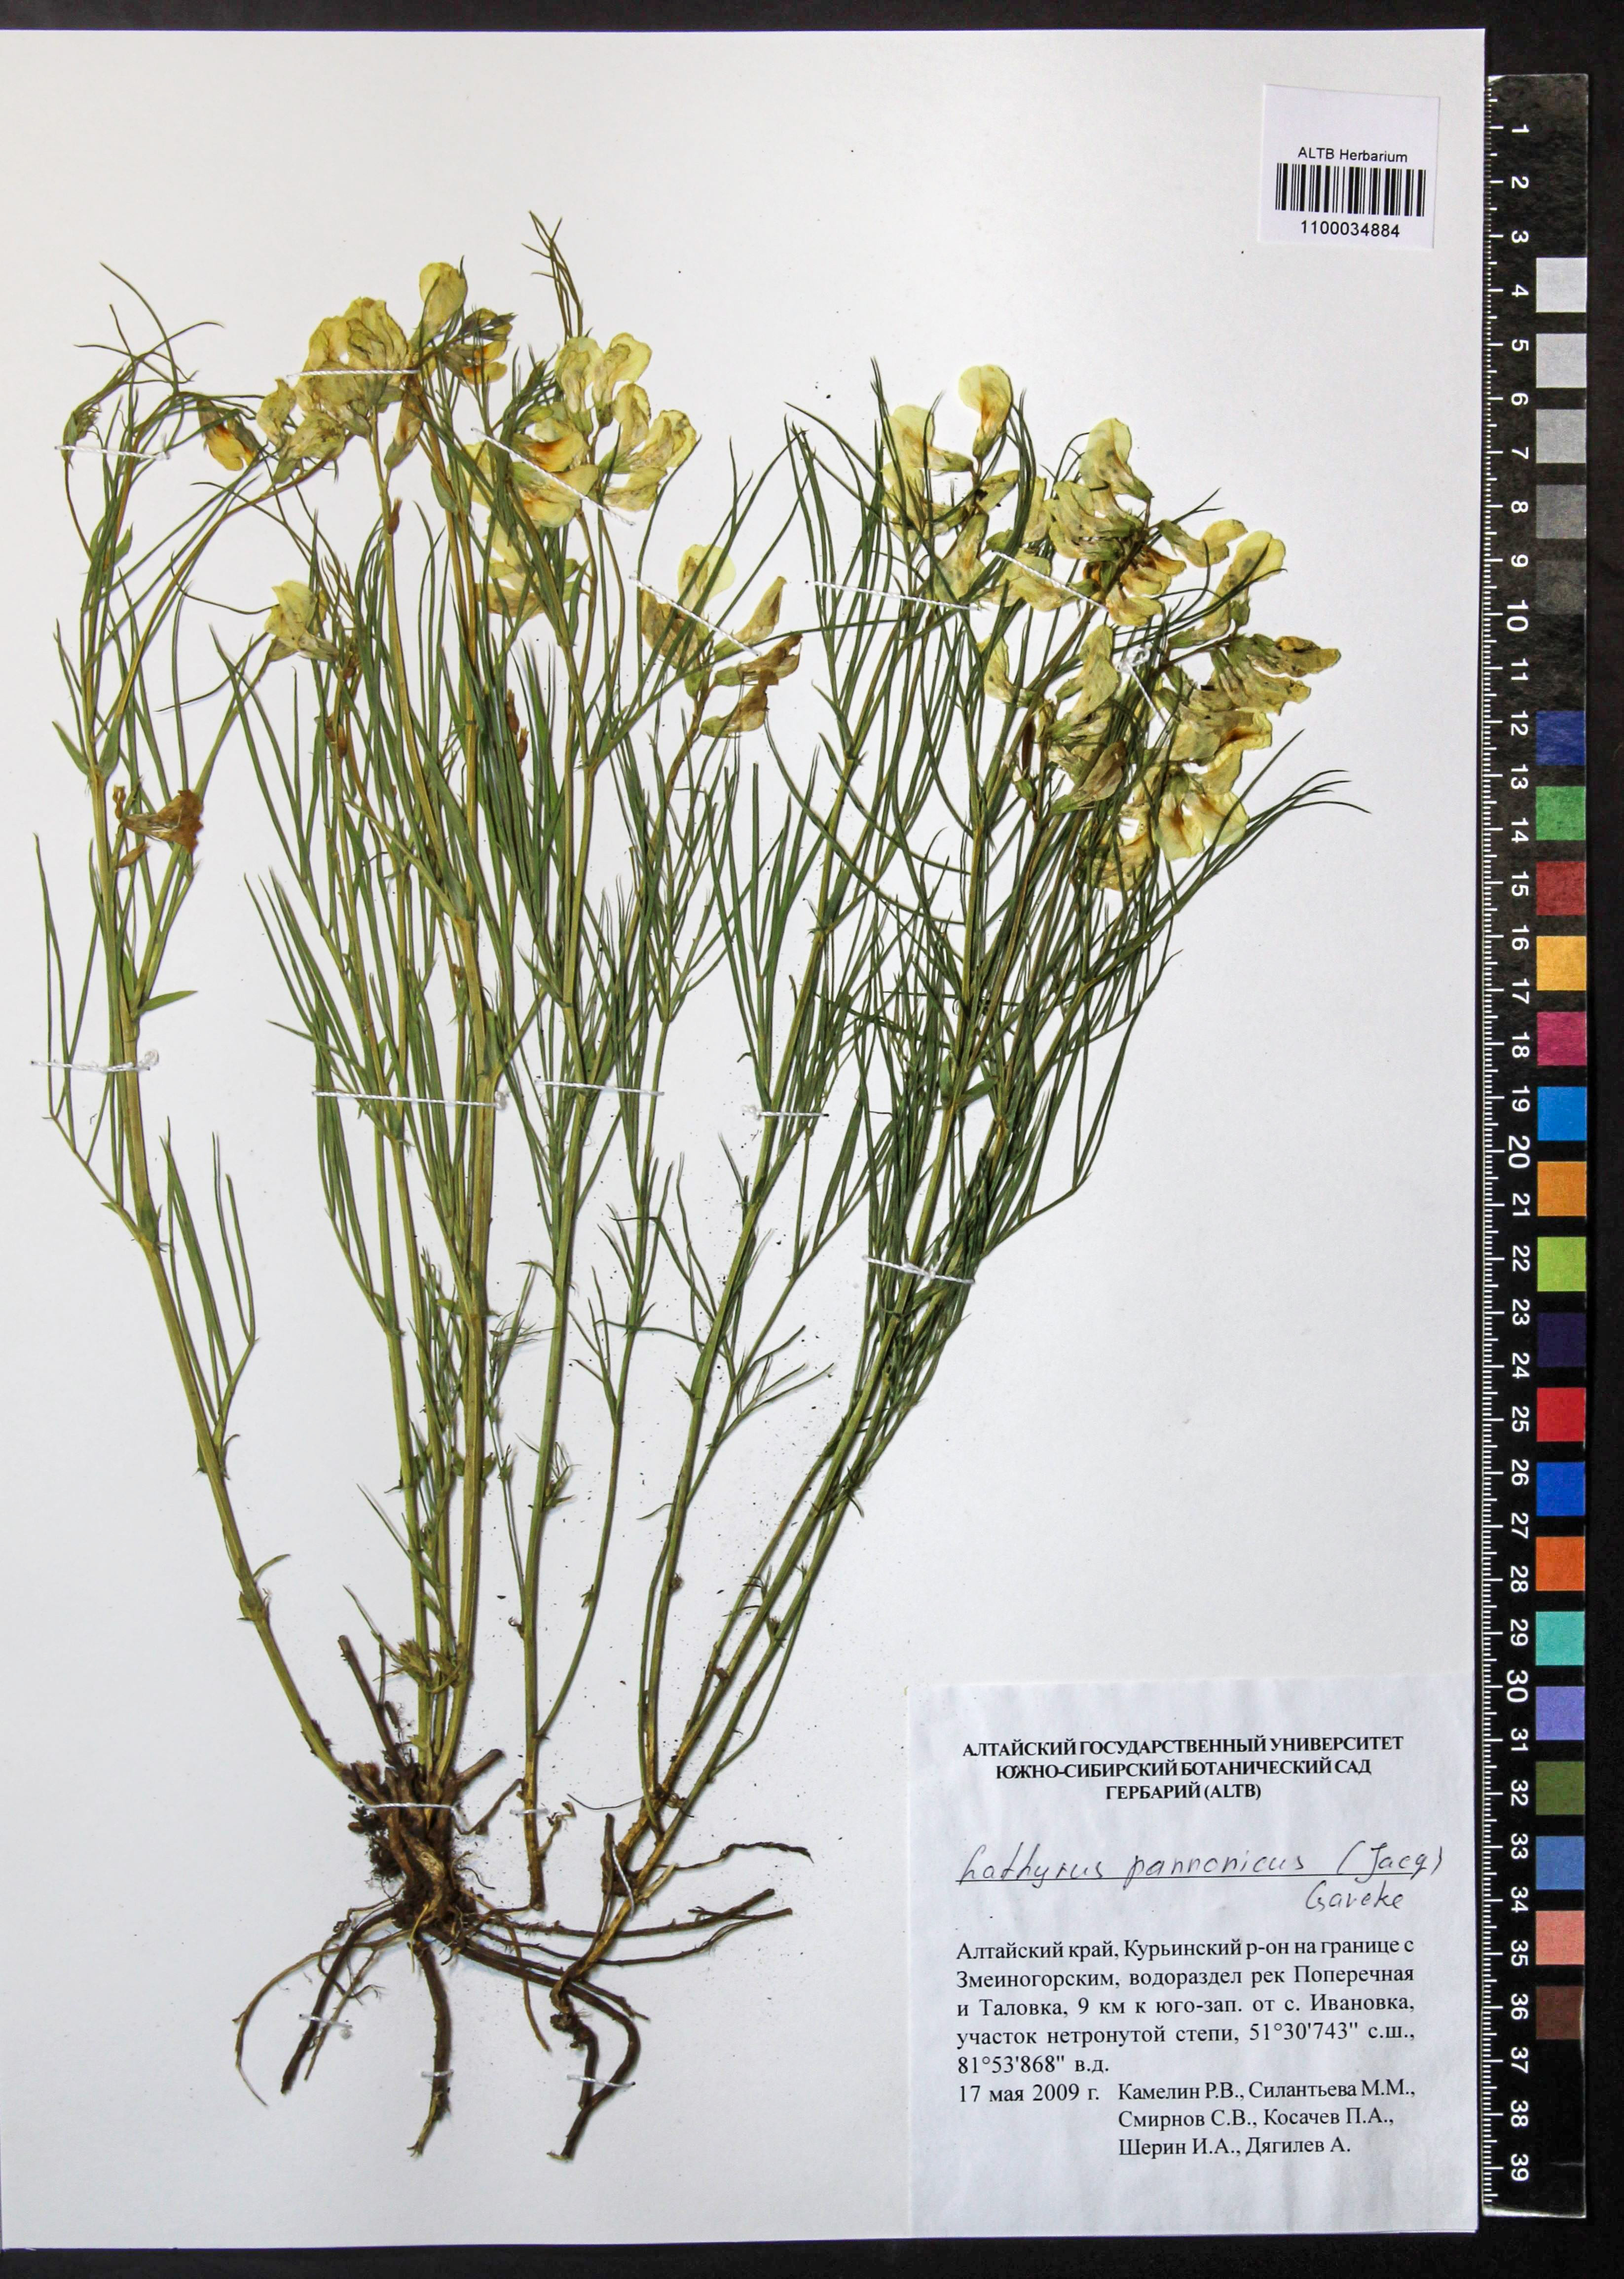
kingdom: Plantae
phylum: Tracheophyta
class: Magnoliopsida
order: Fabales
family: Fabaceae
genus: Lathyrus
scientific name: Lathyrus pannonicus
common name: Pea
